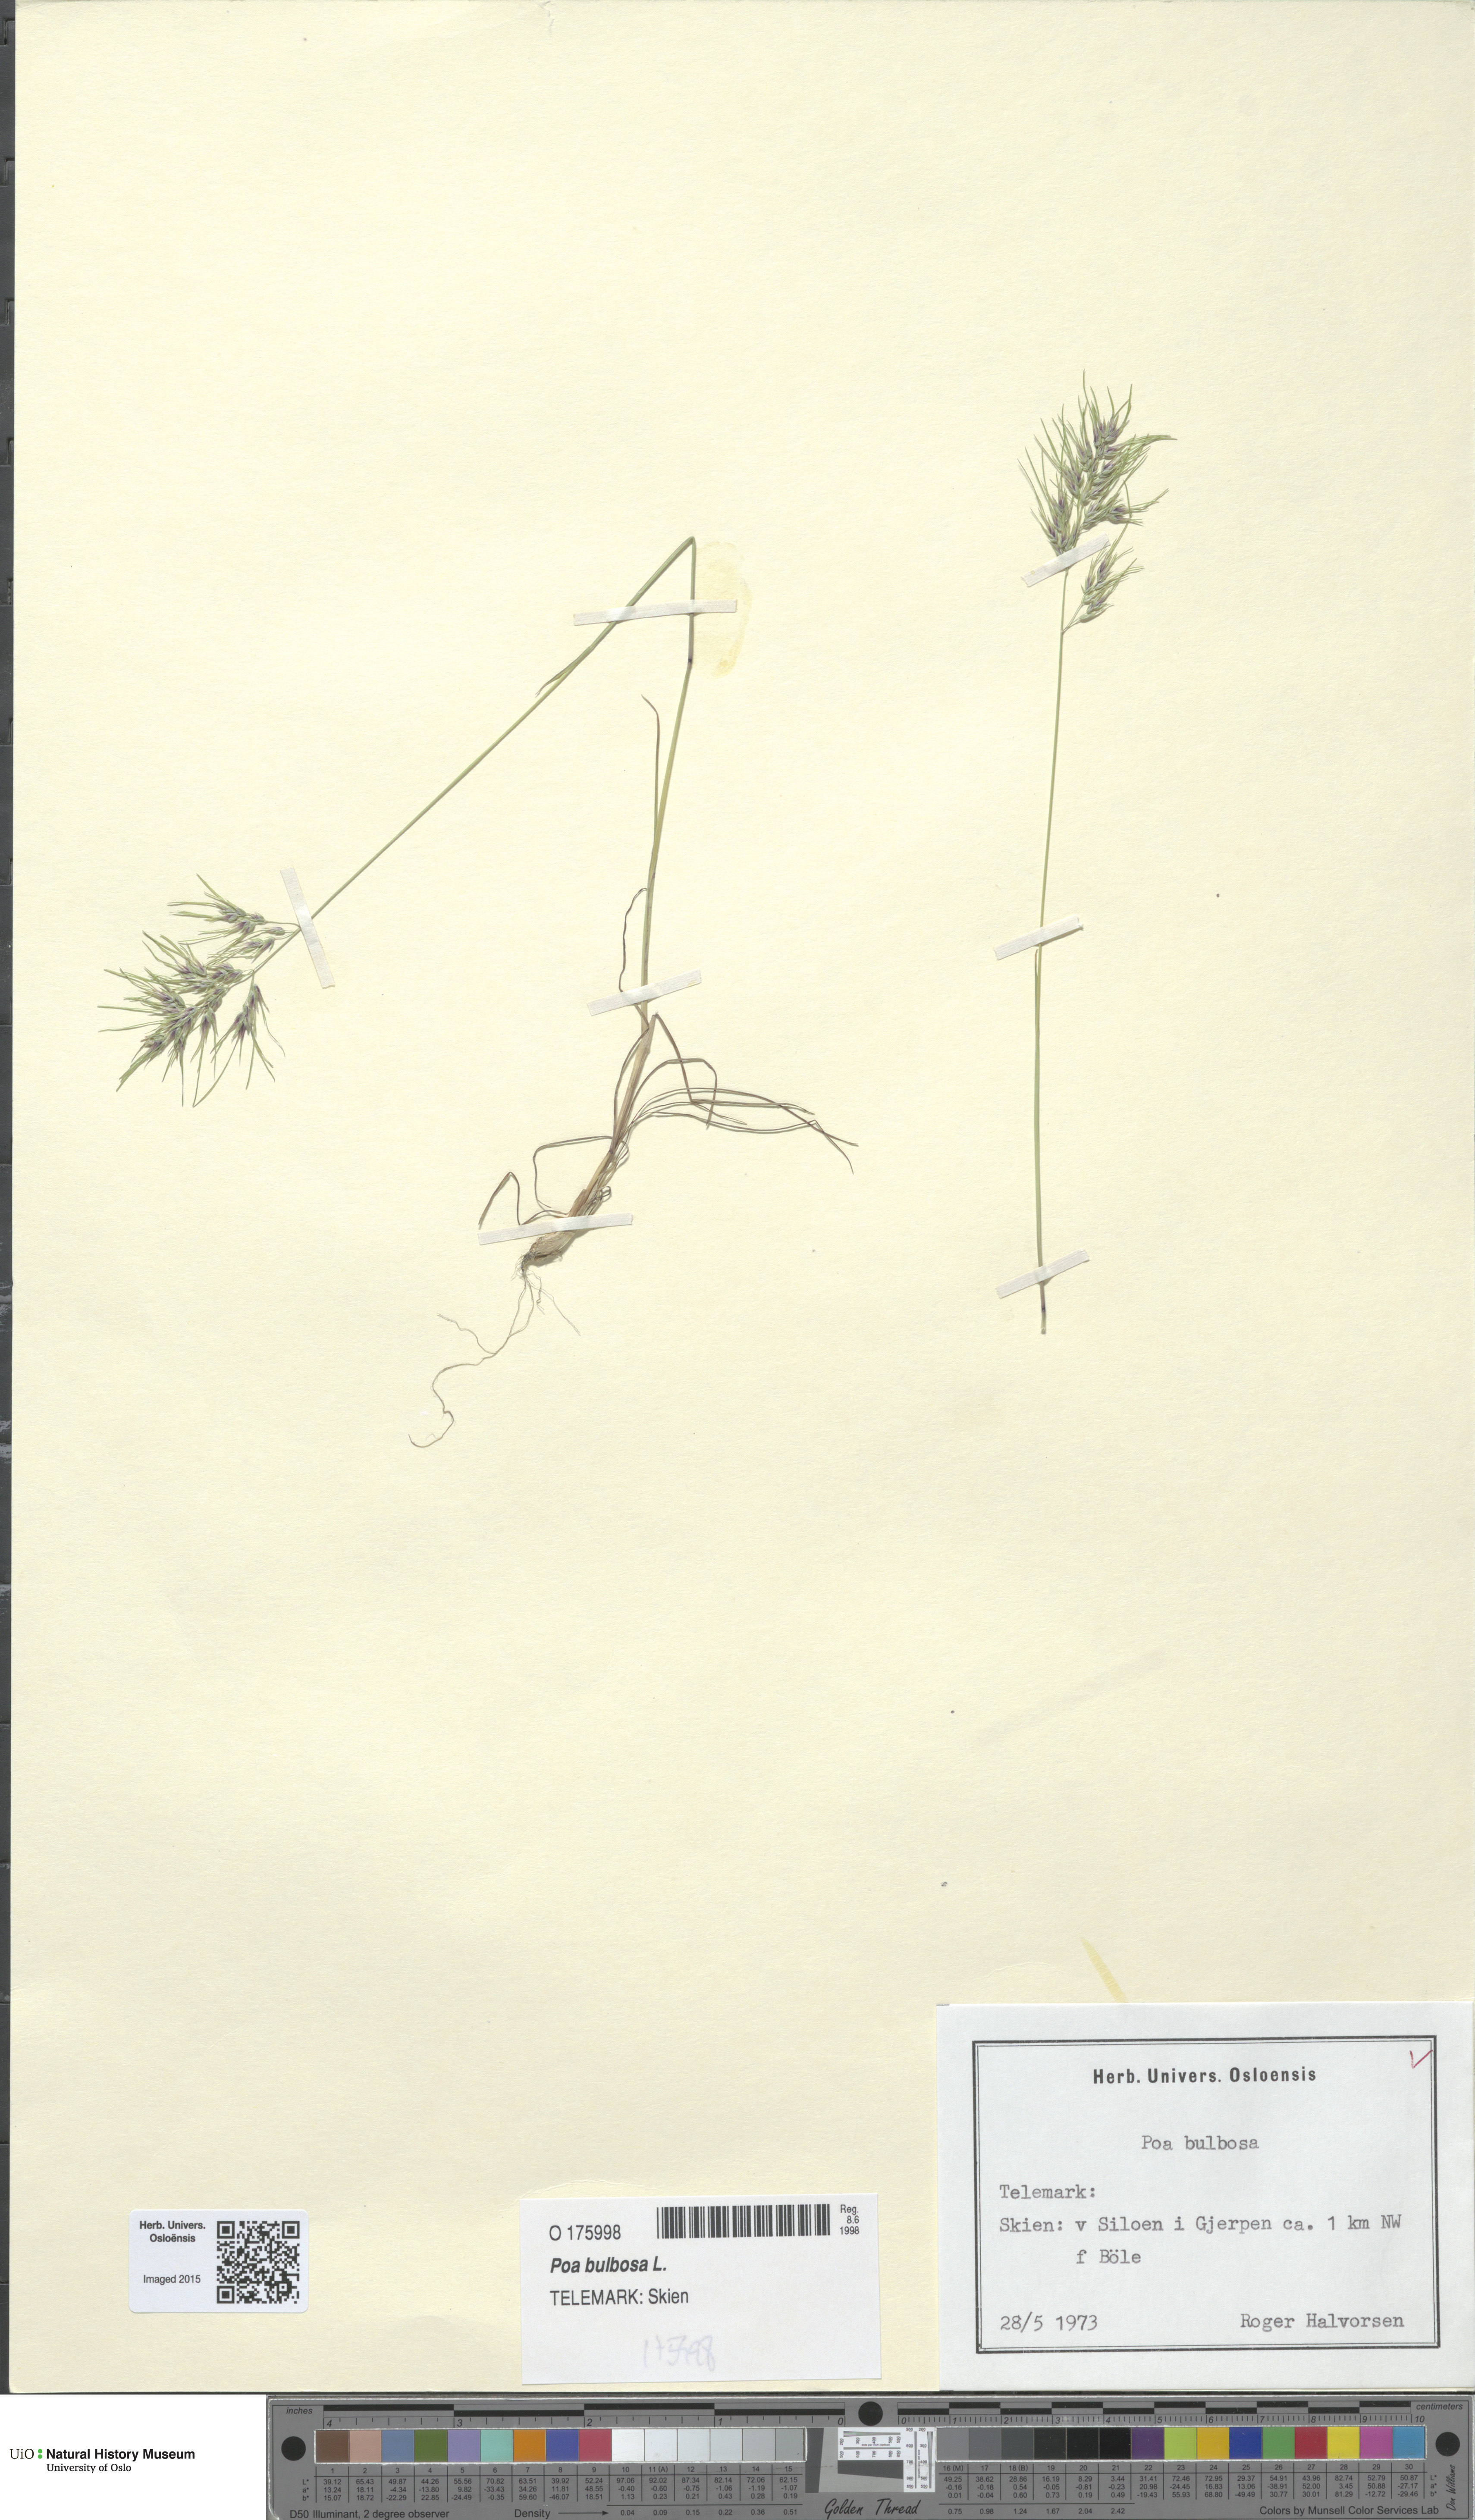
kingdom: Plantae
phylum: Tracheophyta
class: Liliopsida
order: Poales
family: Poaceae
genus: Poa
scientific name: Poa bulbosa
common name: Bulbous bluegrass
